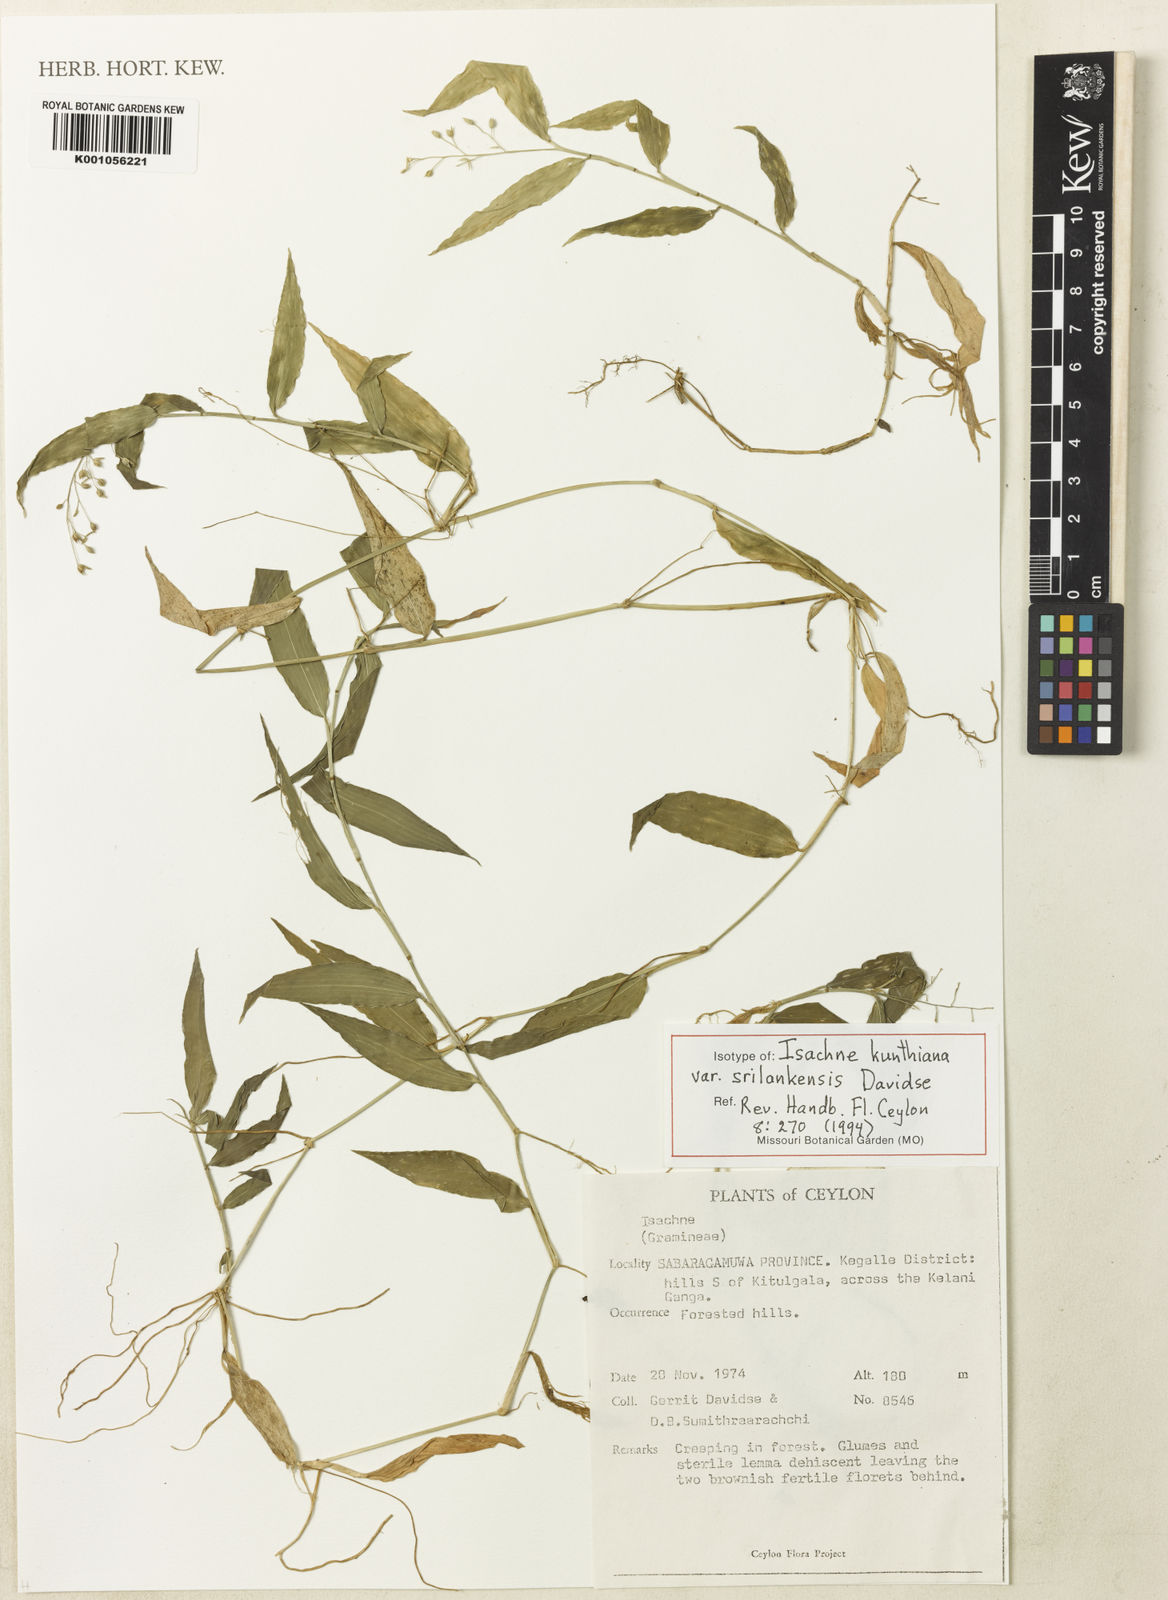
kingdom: Plantae
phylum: Tracheophyta
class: Liliopsida
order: Poales
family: Poaceae
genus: Isachne
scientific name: Isachne kunthiana
